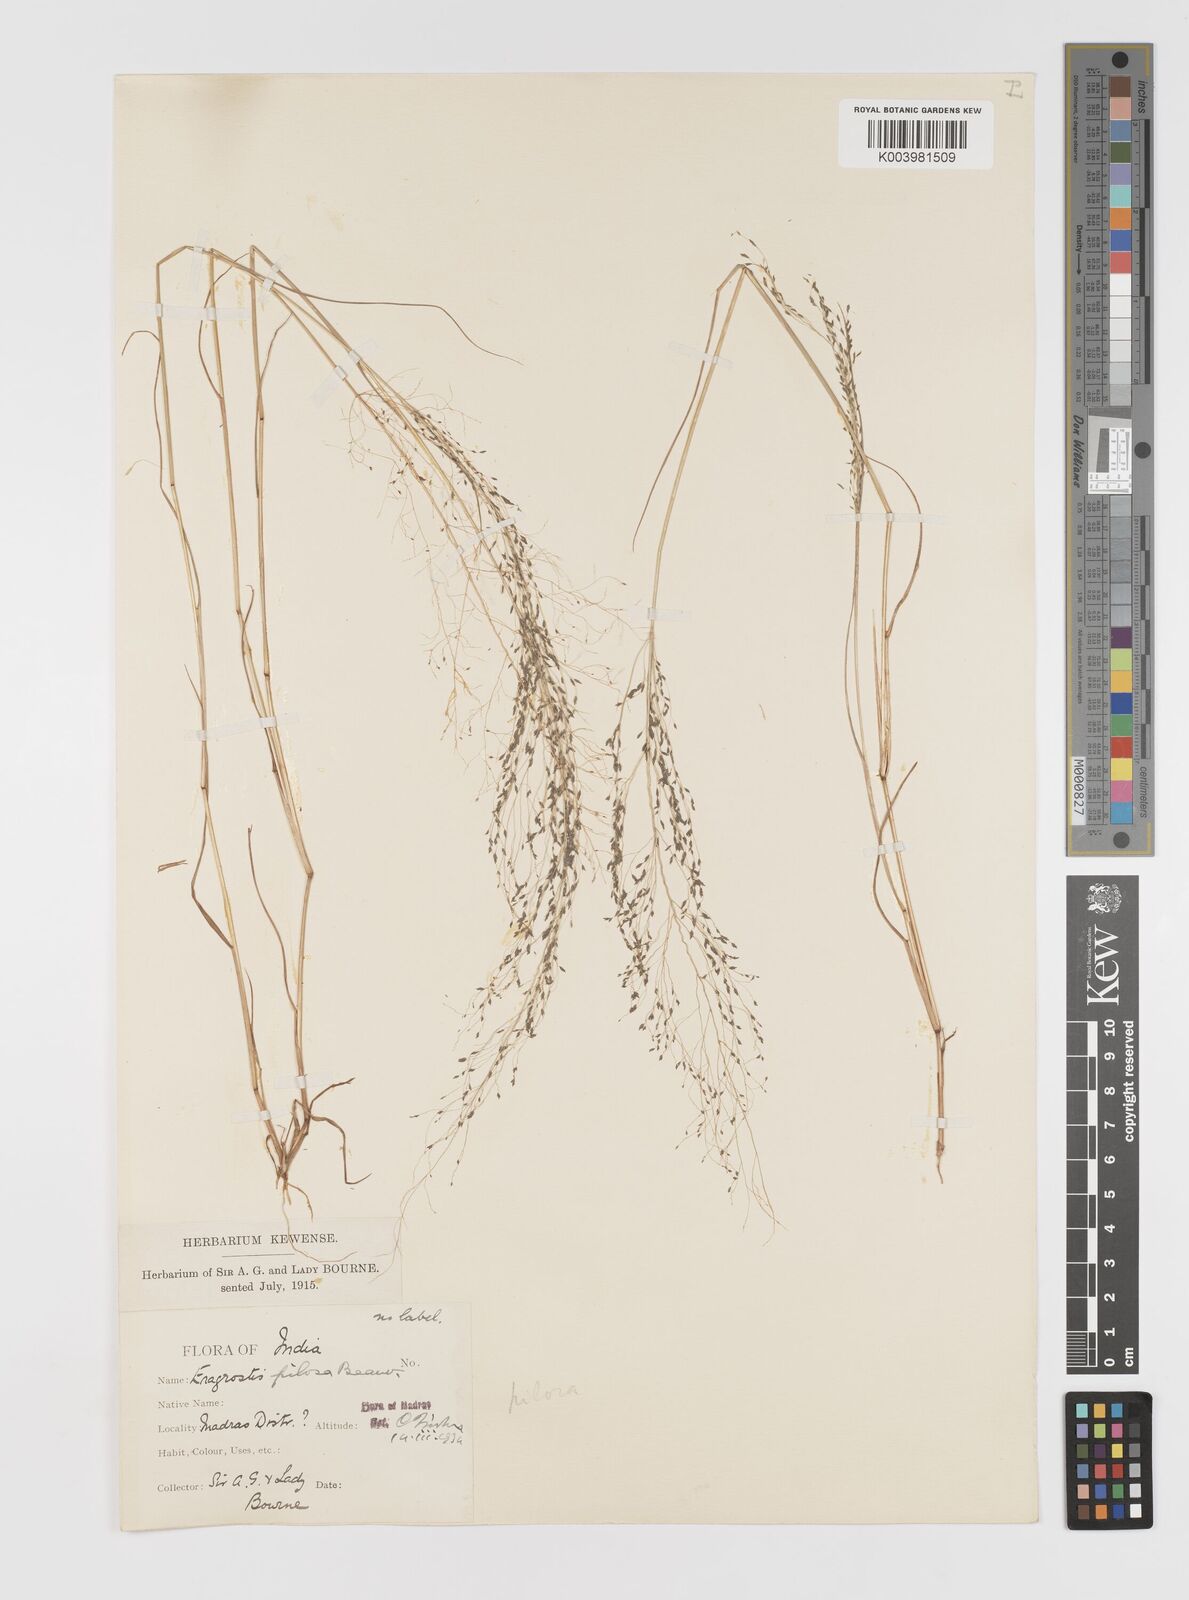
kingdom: Plantae
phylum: Tracheophyta
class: Liliopsida
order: Poales
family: Poaceae
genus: Eragrostis
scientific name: Eragrostis pilosa
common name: Indian lovegrass
